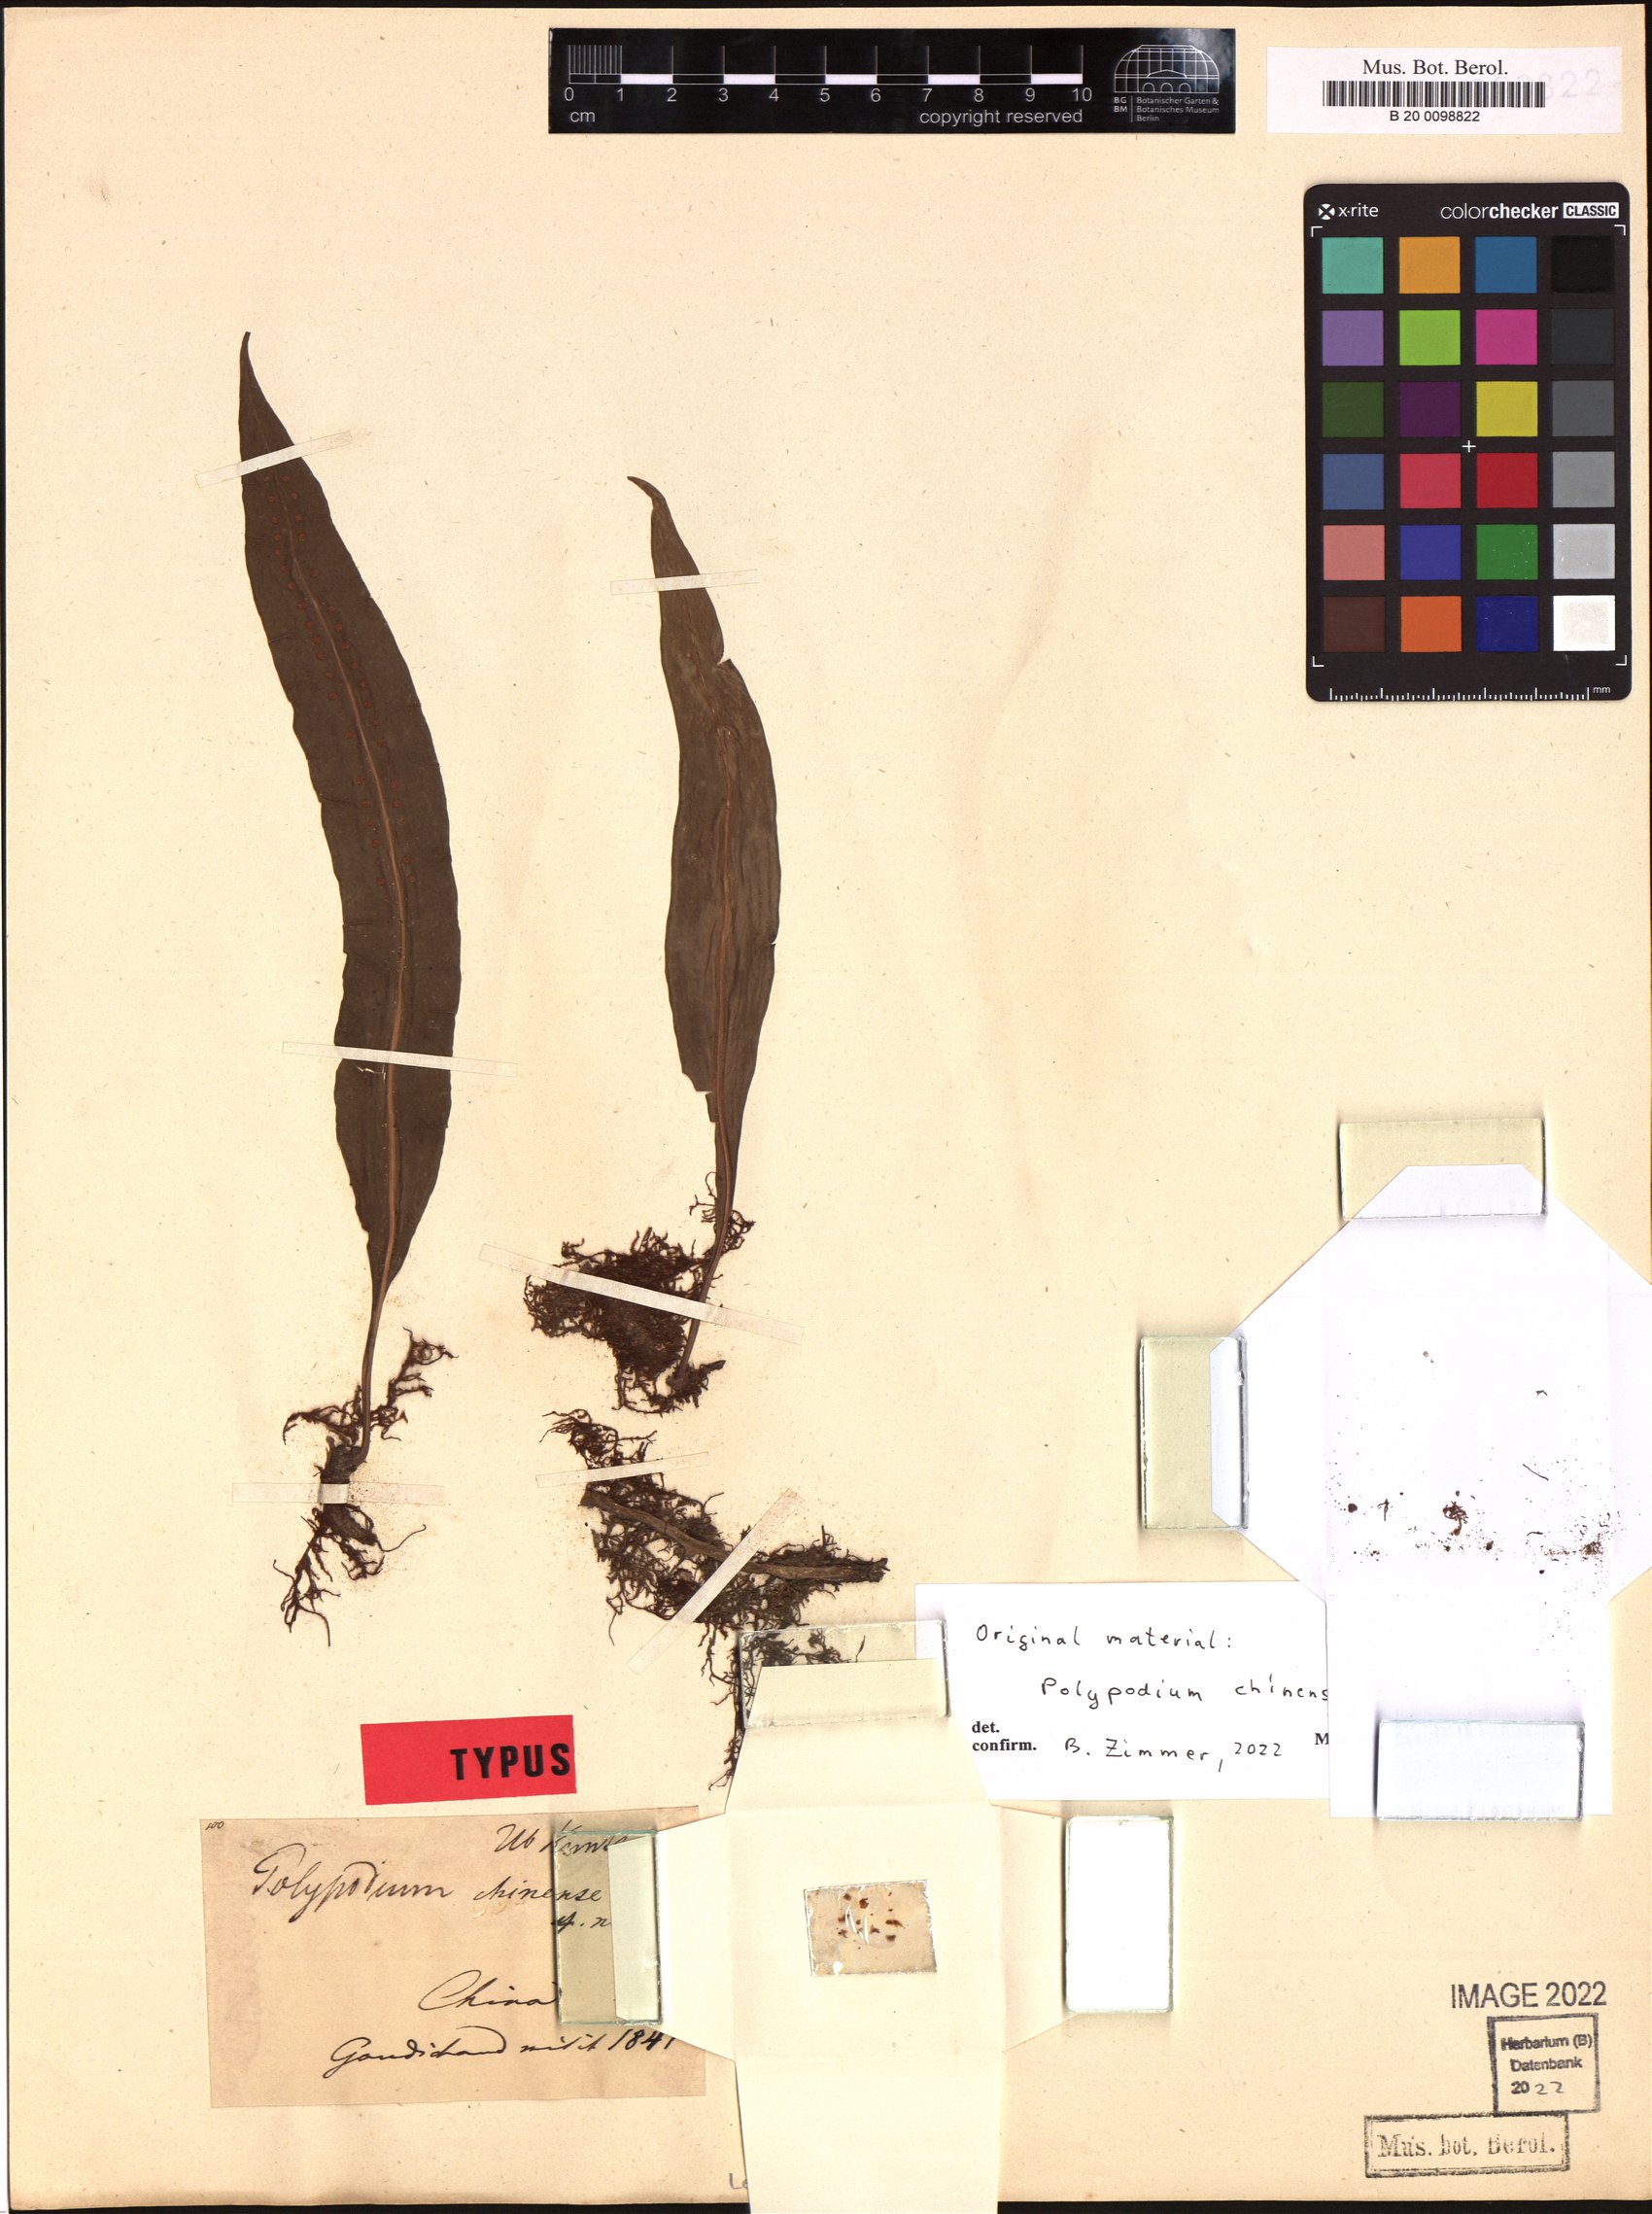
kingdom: Plantae
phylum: Tracheophyta
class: Polypodiopsida
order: Polypodiales
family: Polypodiaceae
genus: Lepisorus
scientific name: Lepisorus fortuni
